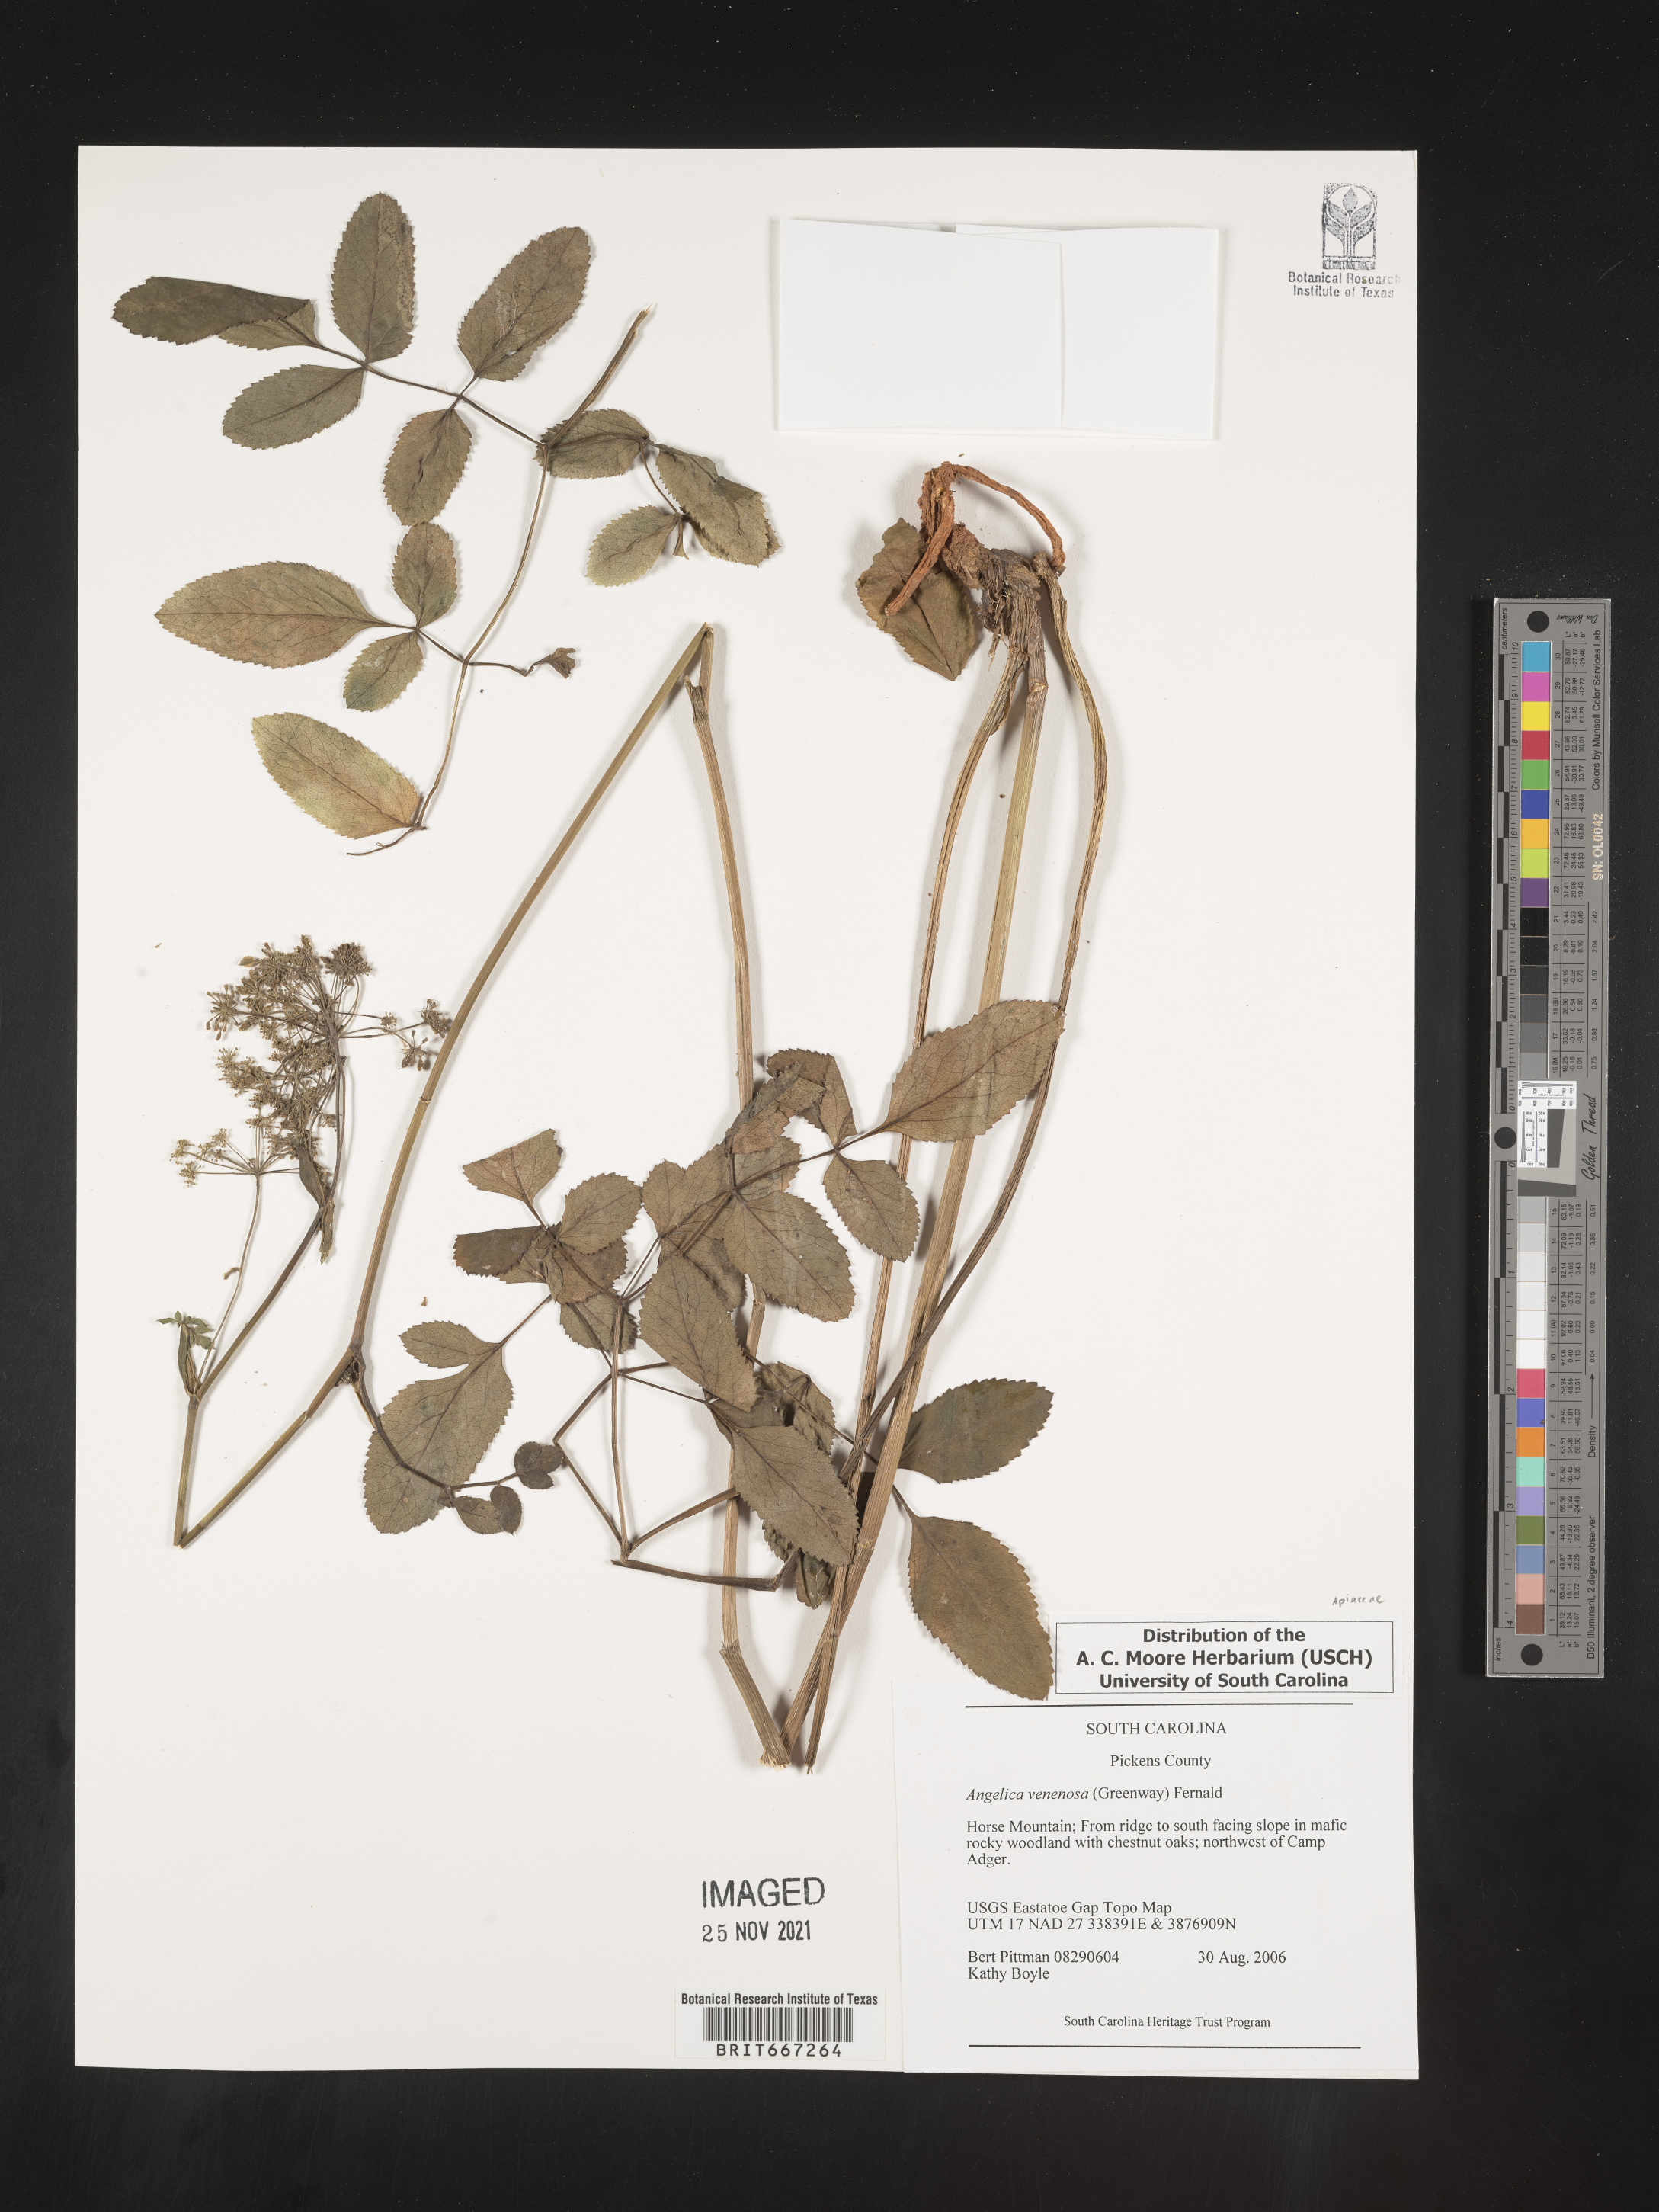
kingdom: Plantae
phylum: Tracheophyta
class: Magnoliopsida
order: Apiales
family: Apiaceae
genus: Angelica
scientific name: Angelica venenosa
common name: Hairy angelica
